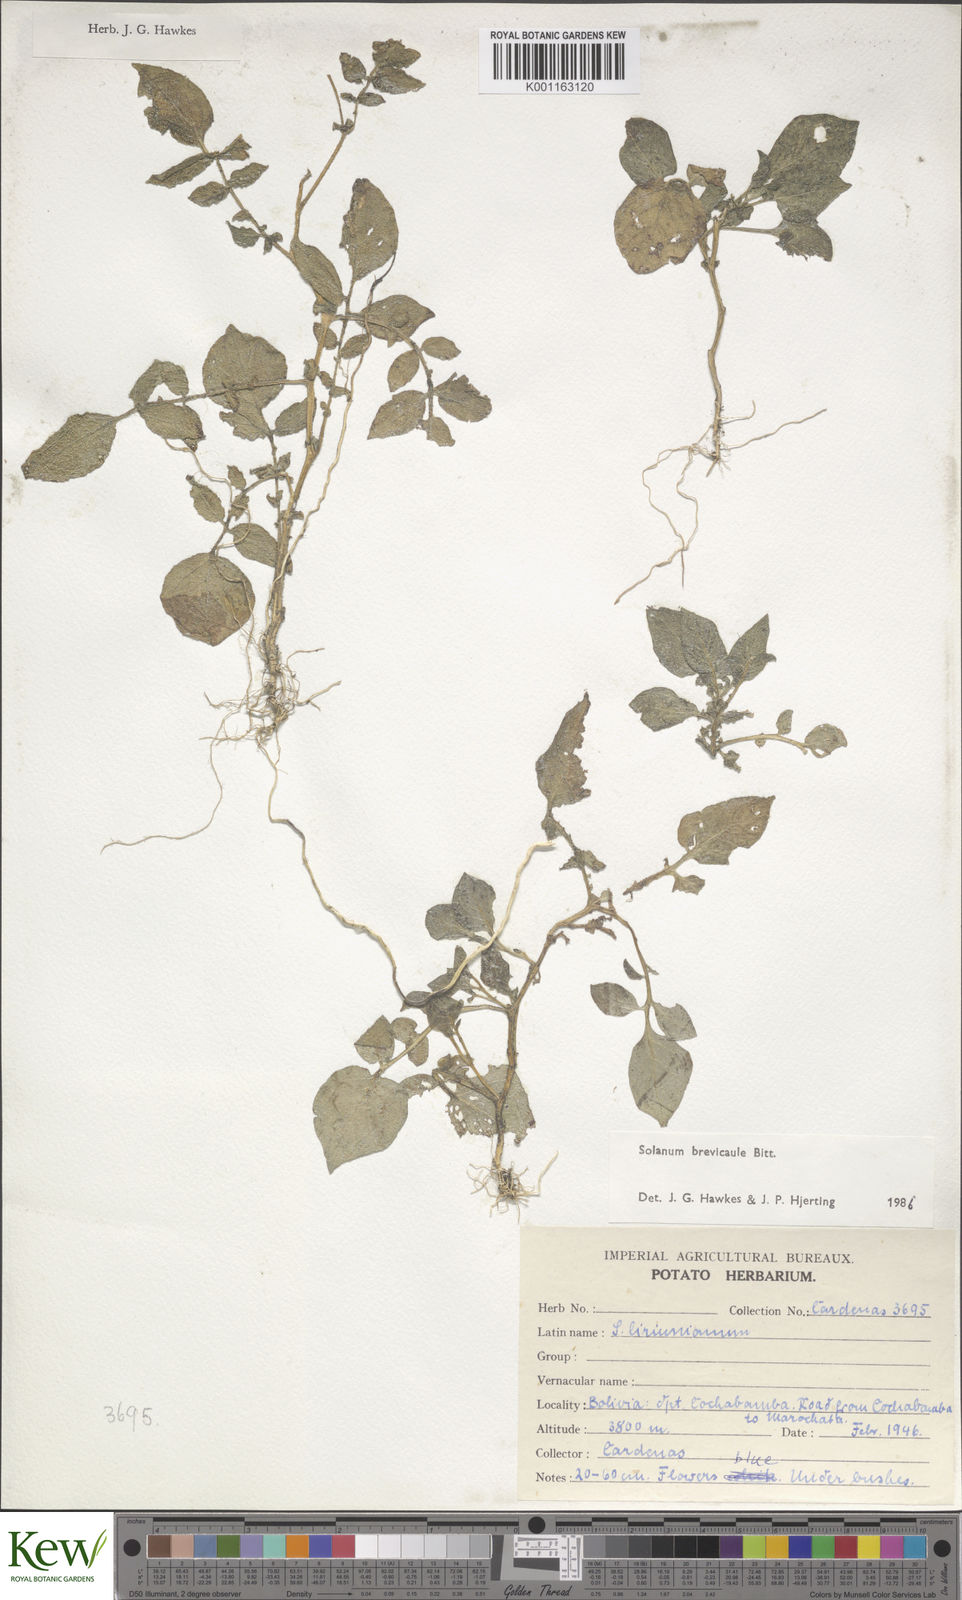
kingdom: Plantae
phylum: Tracheophyta
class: Magnoliopsida
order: Solanales
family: Solanaceae
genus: Solanum
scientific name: Solanum brevicaule
